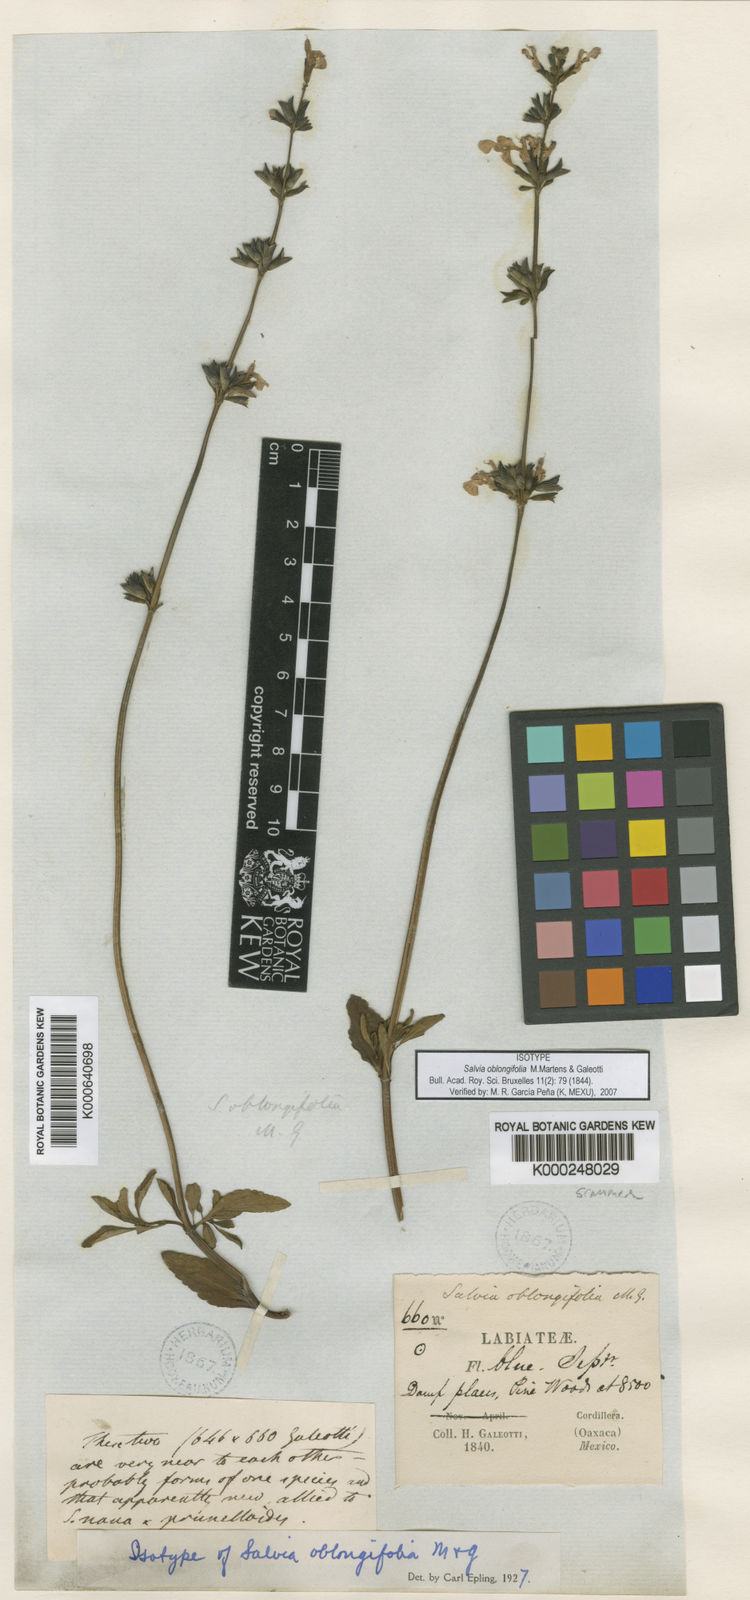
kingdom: Plantae
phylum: Tracheophyta
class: Magnoliopsida
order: Lamiales
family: Lamiaceae
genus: Salvia
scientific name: Salvia oblongifolia
